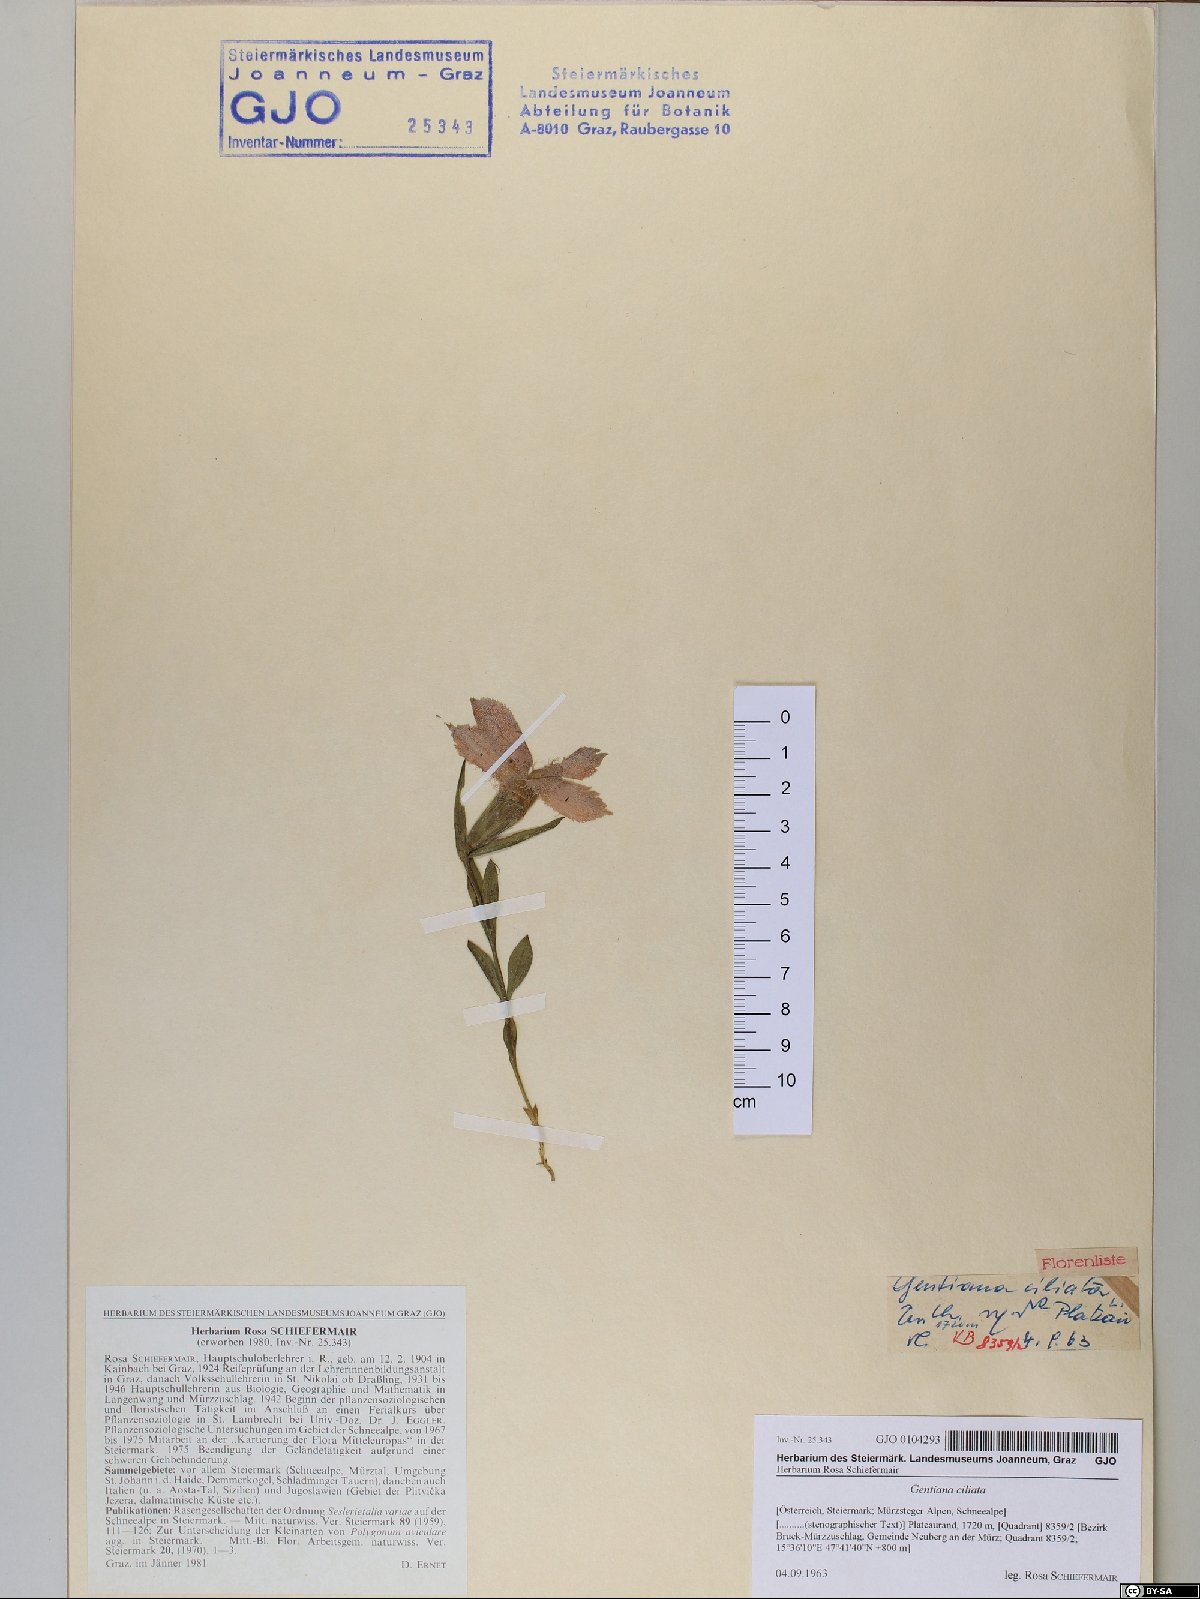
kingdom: Plantae
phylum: Tracheophyta
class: Magnoliopsida
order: Gentianales
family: Gentianaceae
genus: Gentianopsis
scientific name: Gentianopsis ciliata
